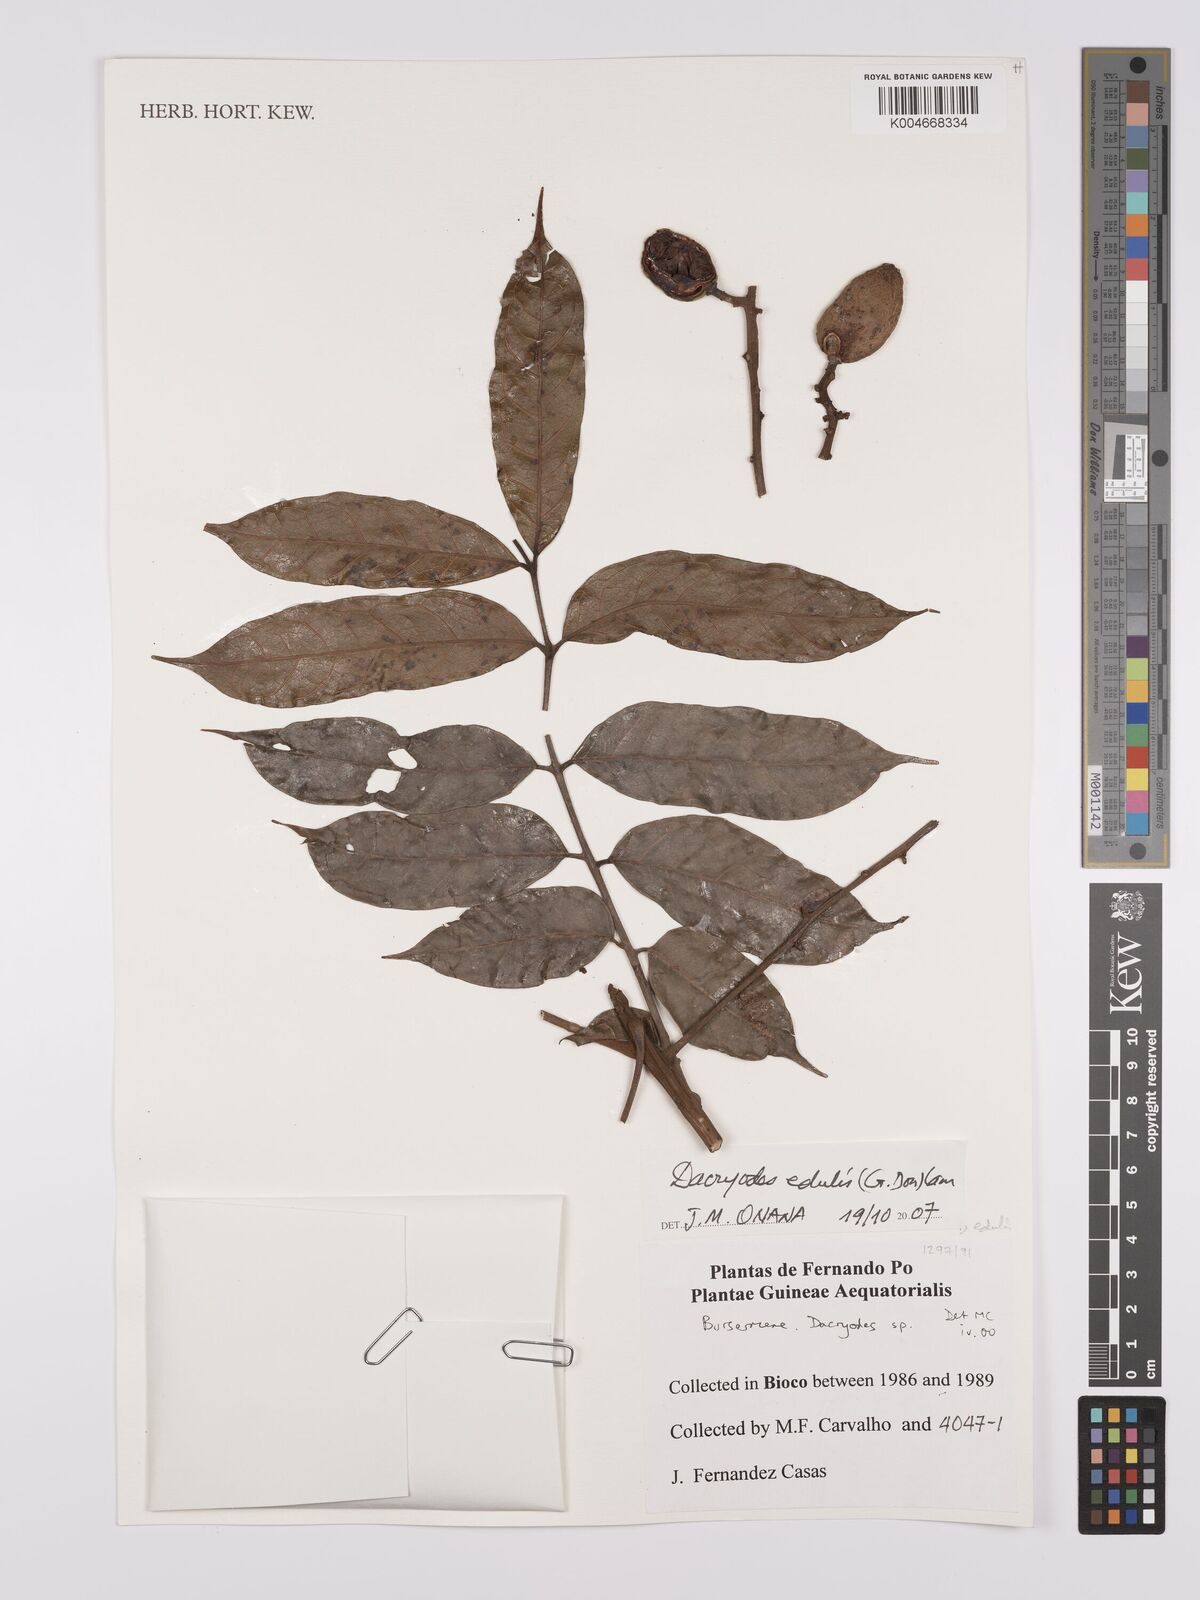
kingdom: Plantae
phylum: Tracheophyta
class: Magnoliopsida
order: Sapindales
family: Burseraceae
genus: Pachylobus
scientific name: Pachylobus edulis
